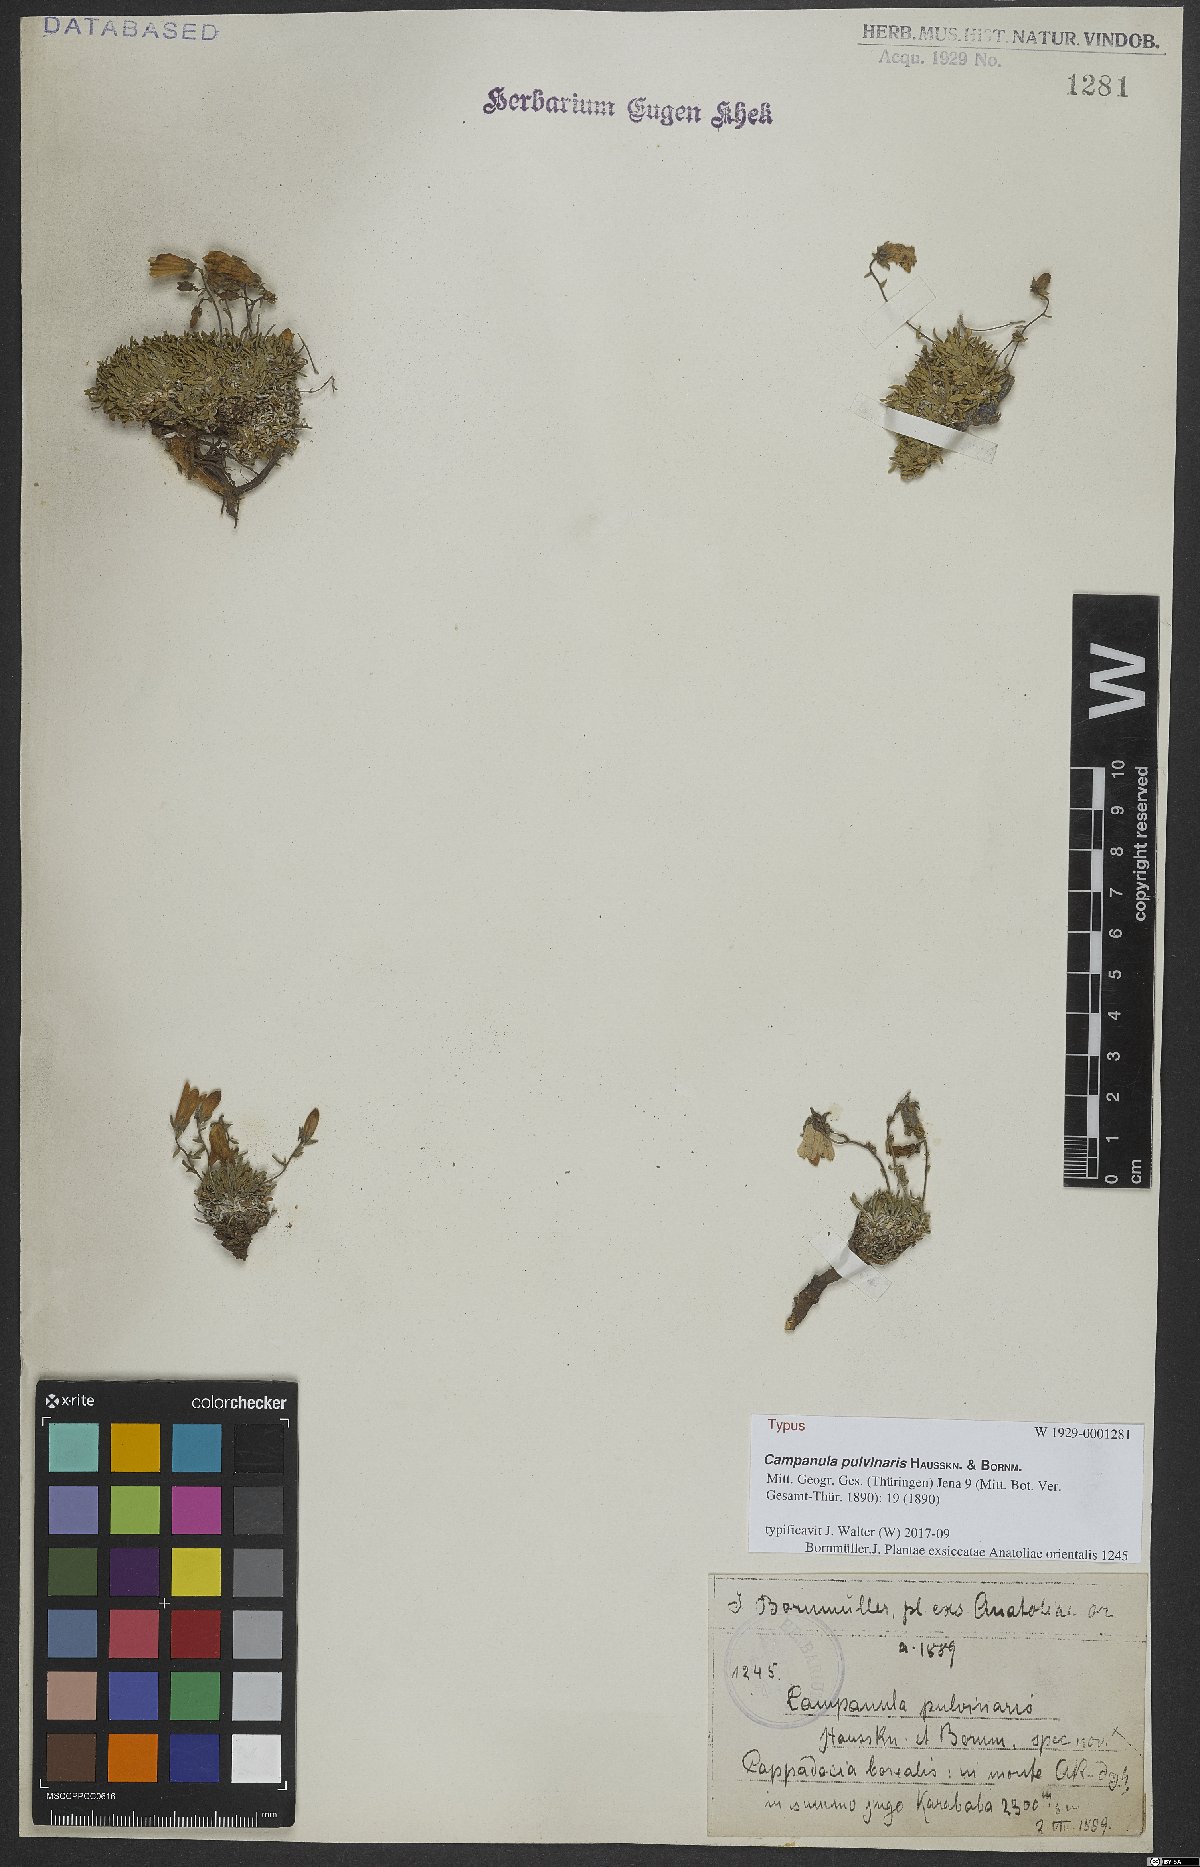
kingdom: Plantae
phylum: Tracheophyta
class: Magnoliopsida
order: Asterales
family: Campanulaceae
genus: Campanula
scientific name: Campanula pulvinaris
